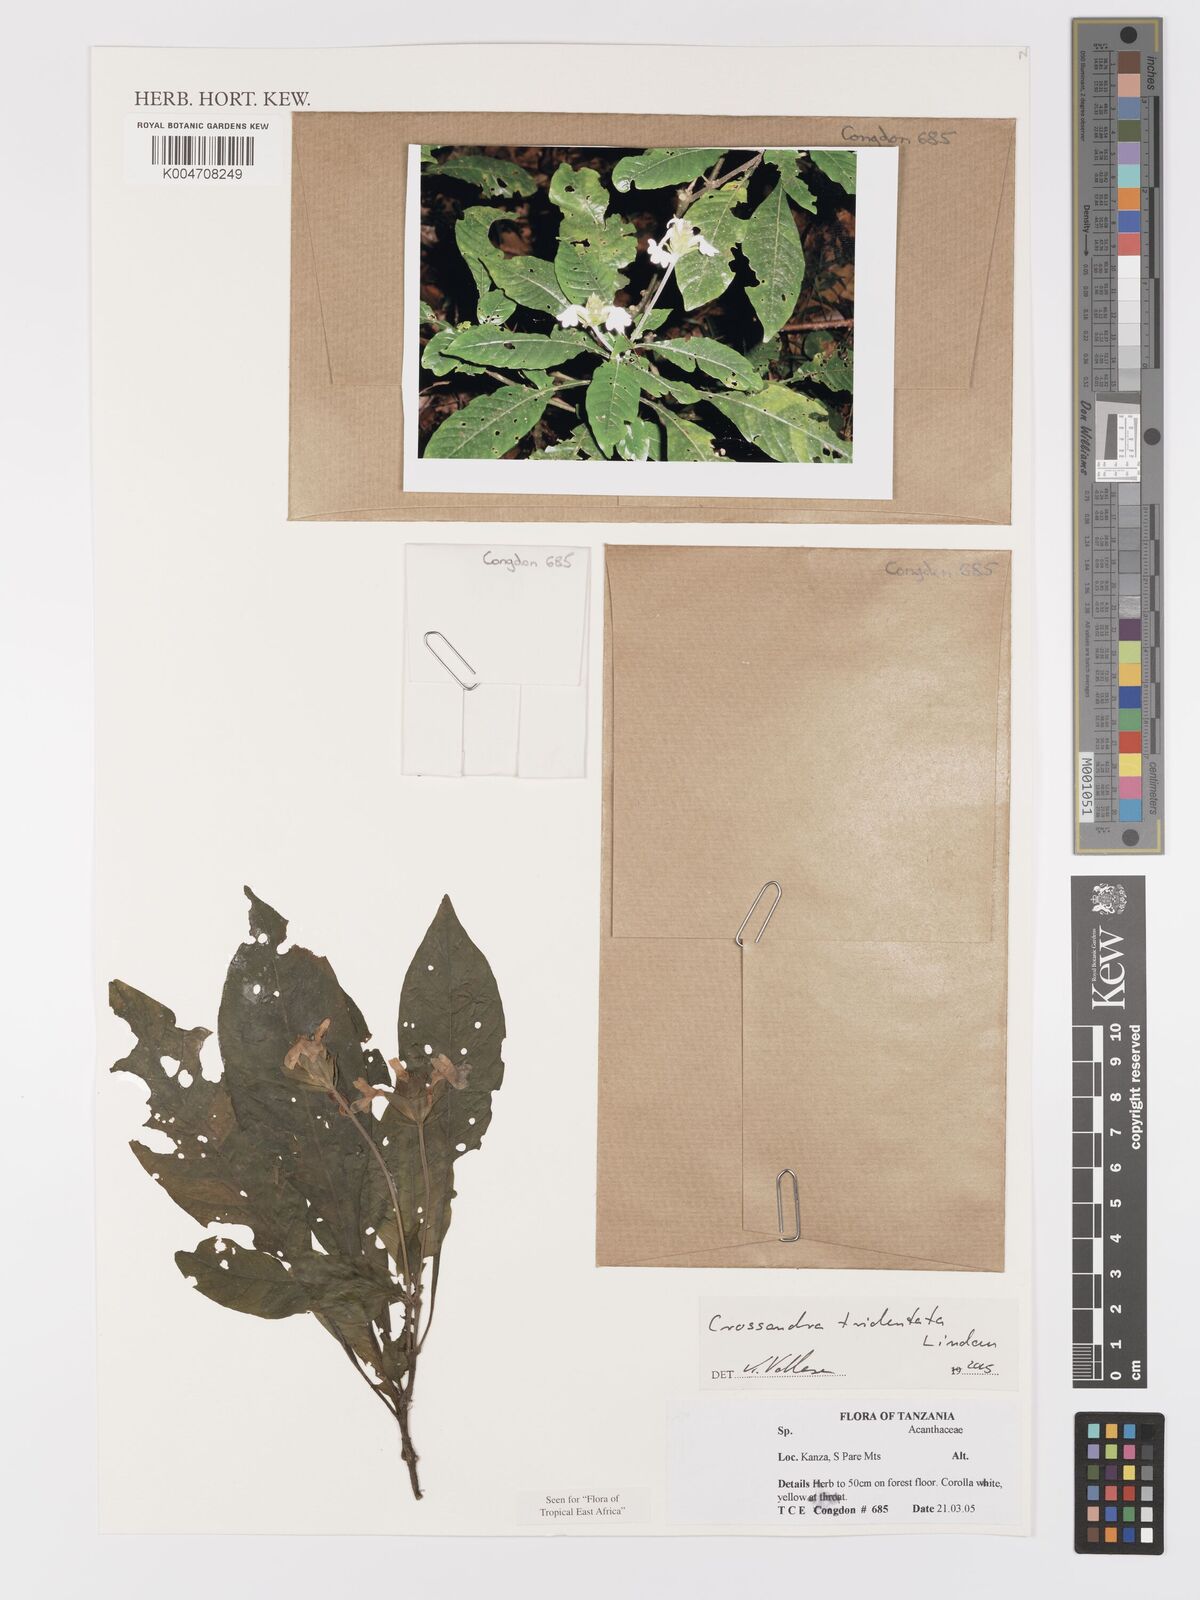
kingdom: Plantae
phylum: Tracheophyta
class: Magnoliopsida
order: Lamiales
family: Acanthaceae
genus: Crossandra
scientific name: Crossandra tridentata
